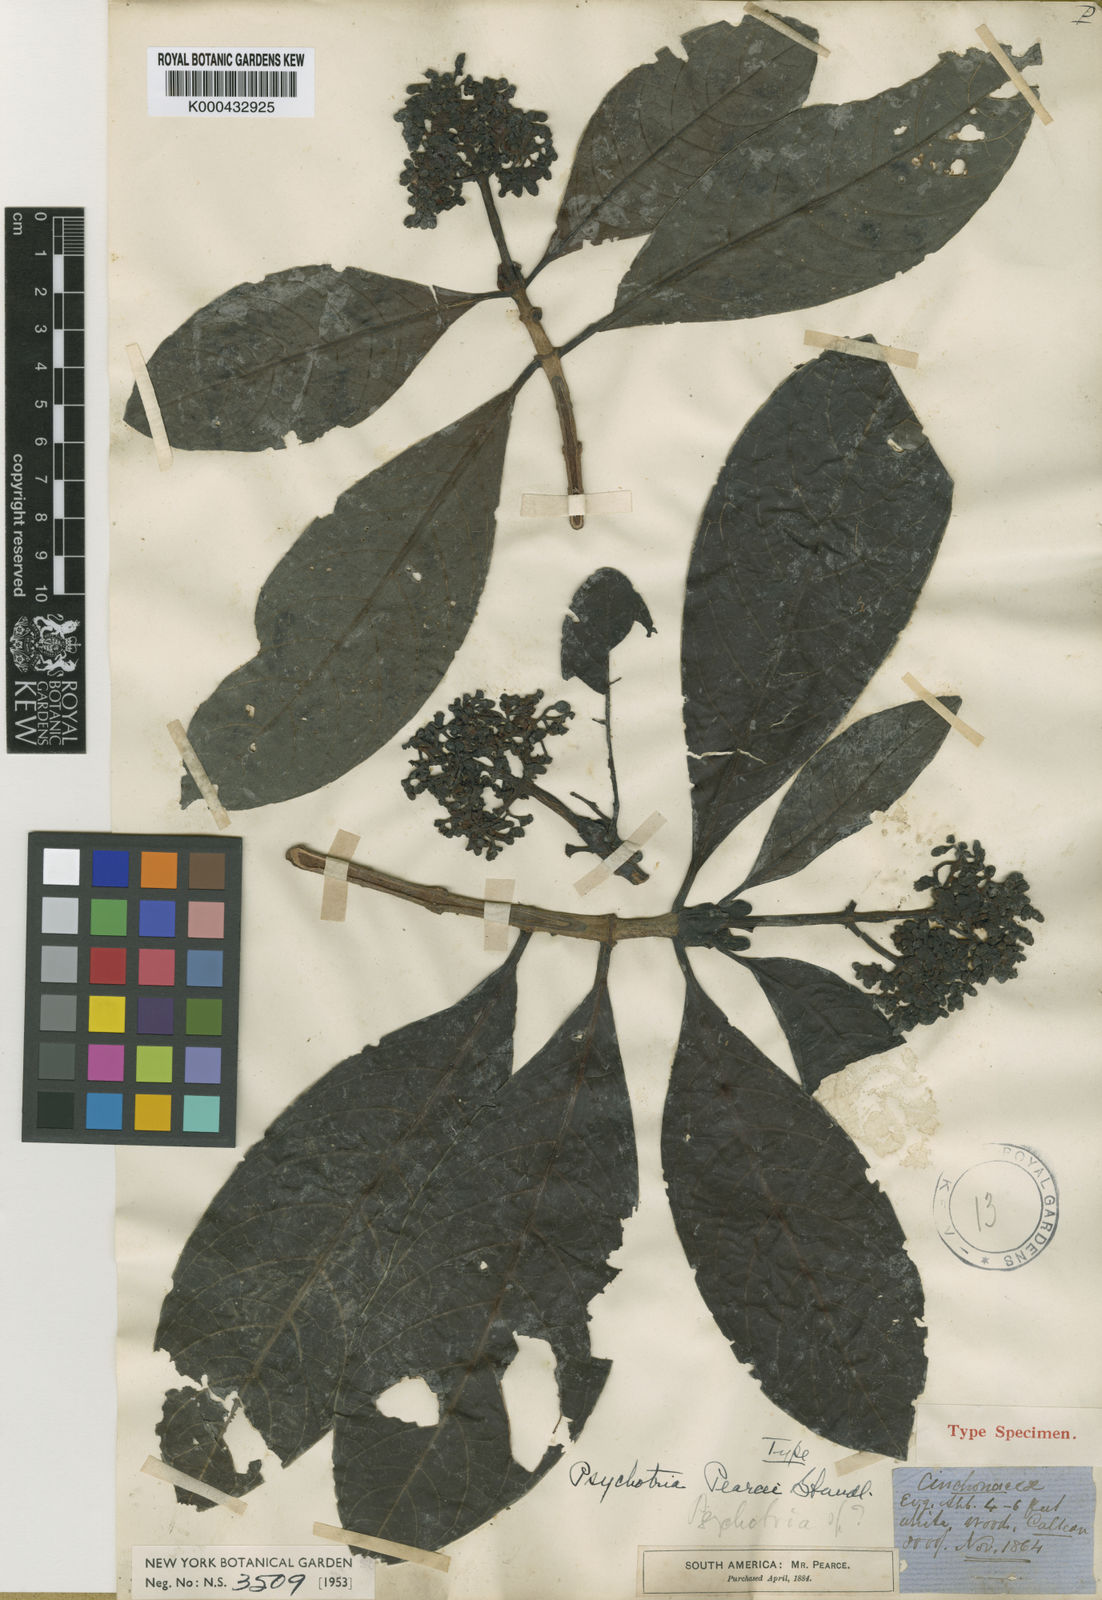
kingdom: Plantae
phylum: Tracheophyta
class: Magnoliopsida
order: Gentianales
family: Rubiaceae
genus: Psychotria
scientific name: Psychotria pearcei
